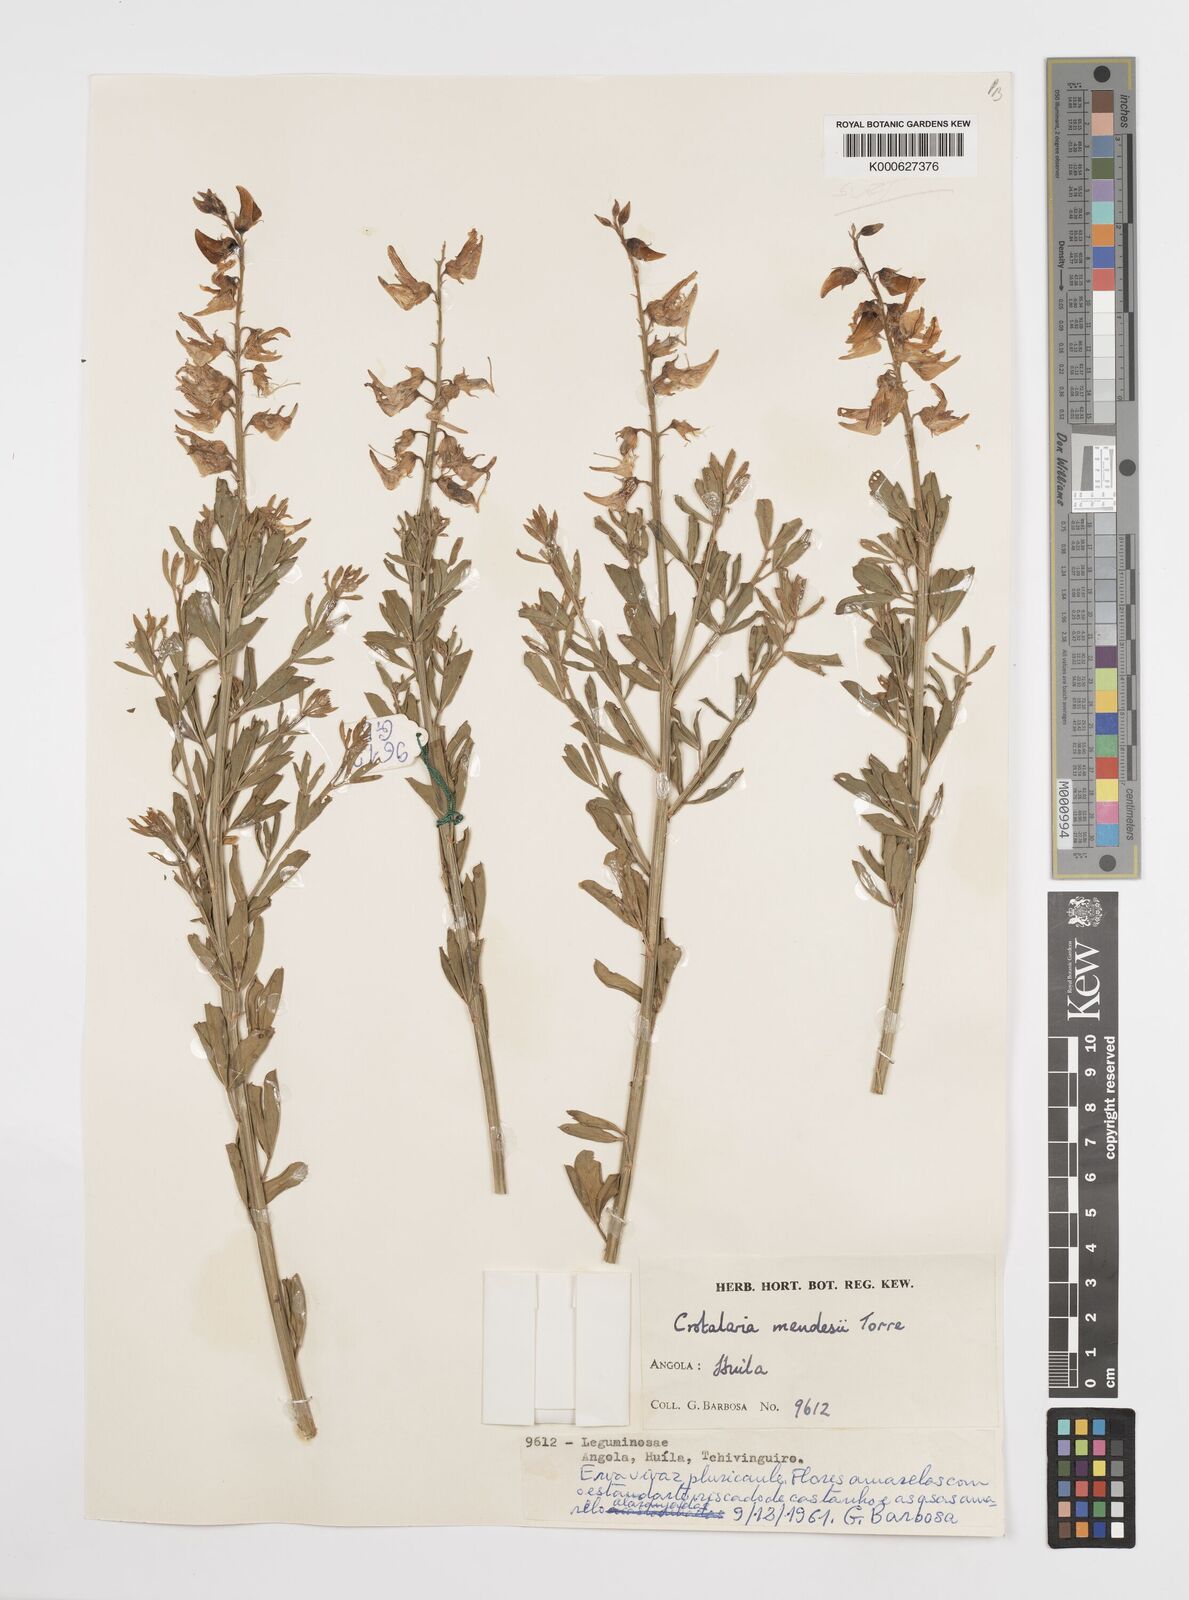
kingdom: Plantae
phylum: Tracheophyta
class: Magnoliopsida
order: Fabales
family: Fabaceae
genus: Crotalaria
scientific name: Crotalaria mendesii
